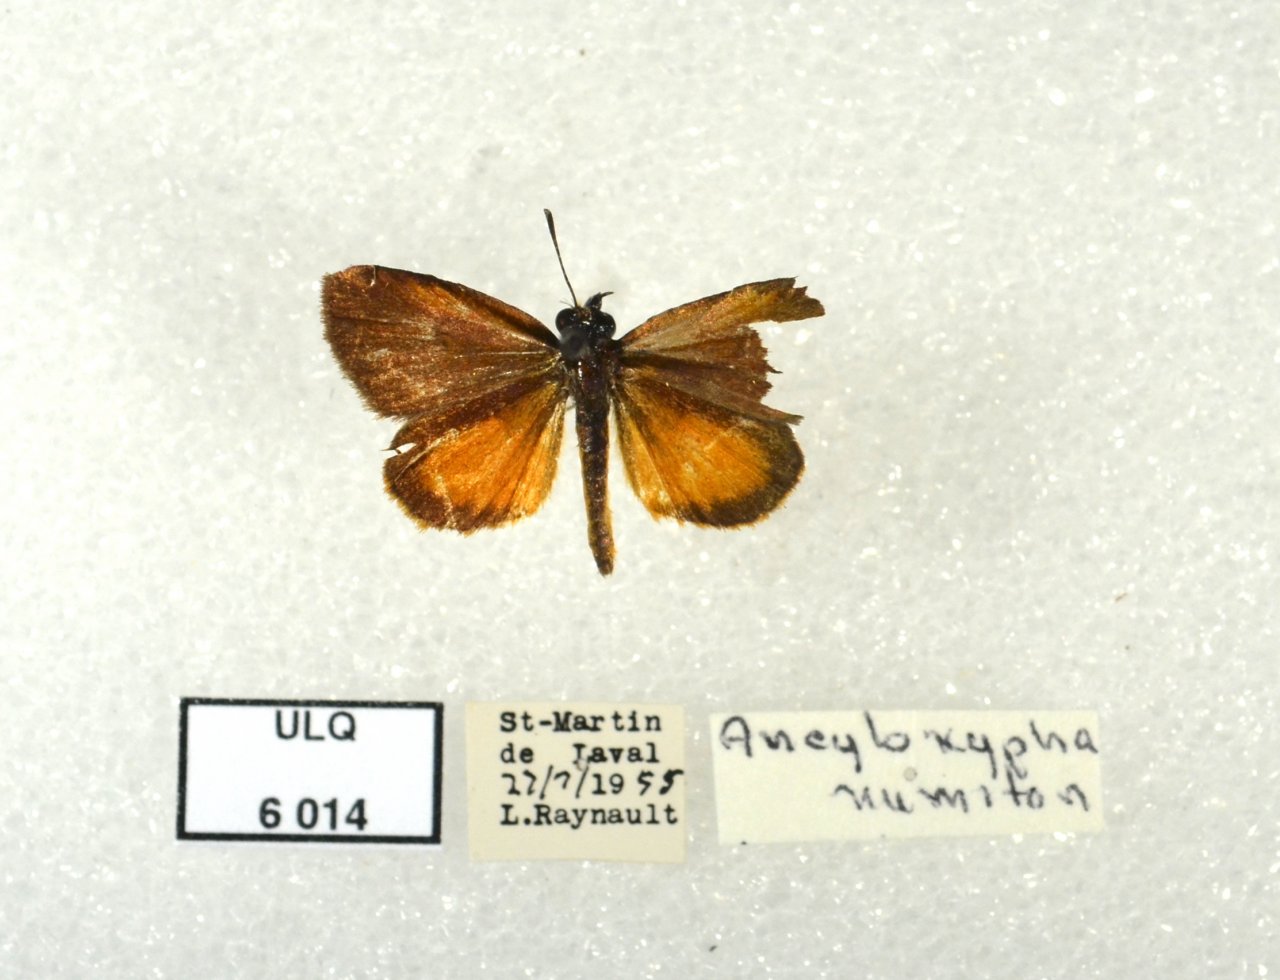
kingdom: Animalia
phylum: Arthropoda
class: Insecta
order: Lepidoptera
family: Hesperiidae
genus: Ancyloxypha
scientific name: Ancyloxypha numitor
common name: Least Skipper
